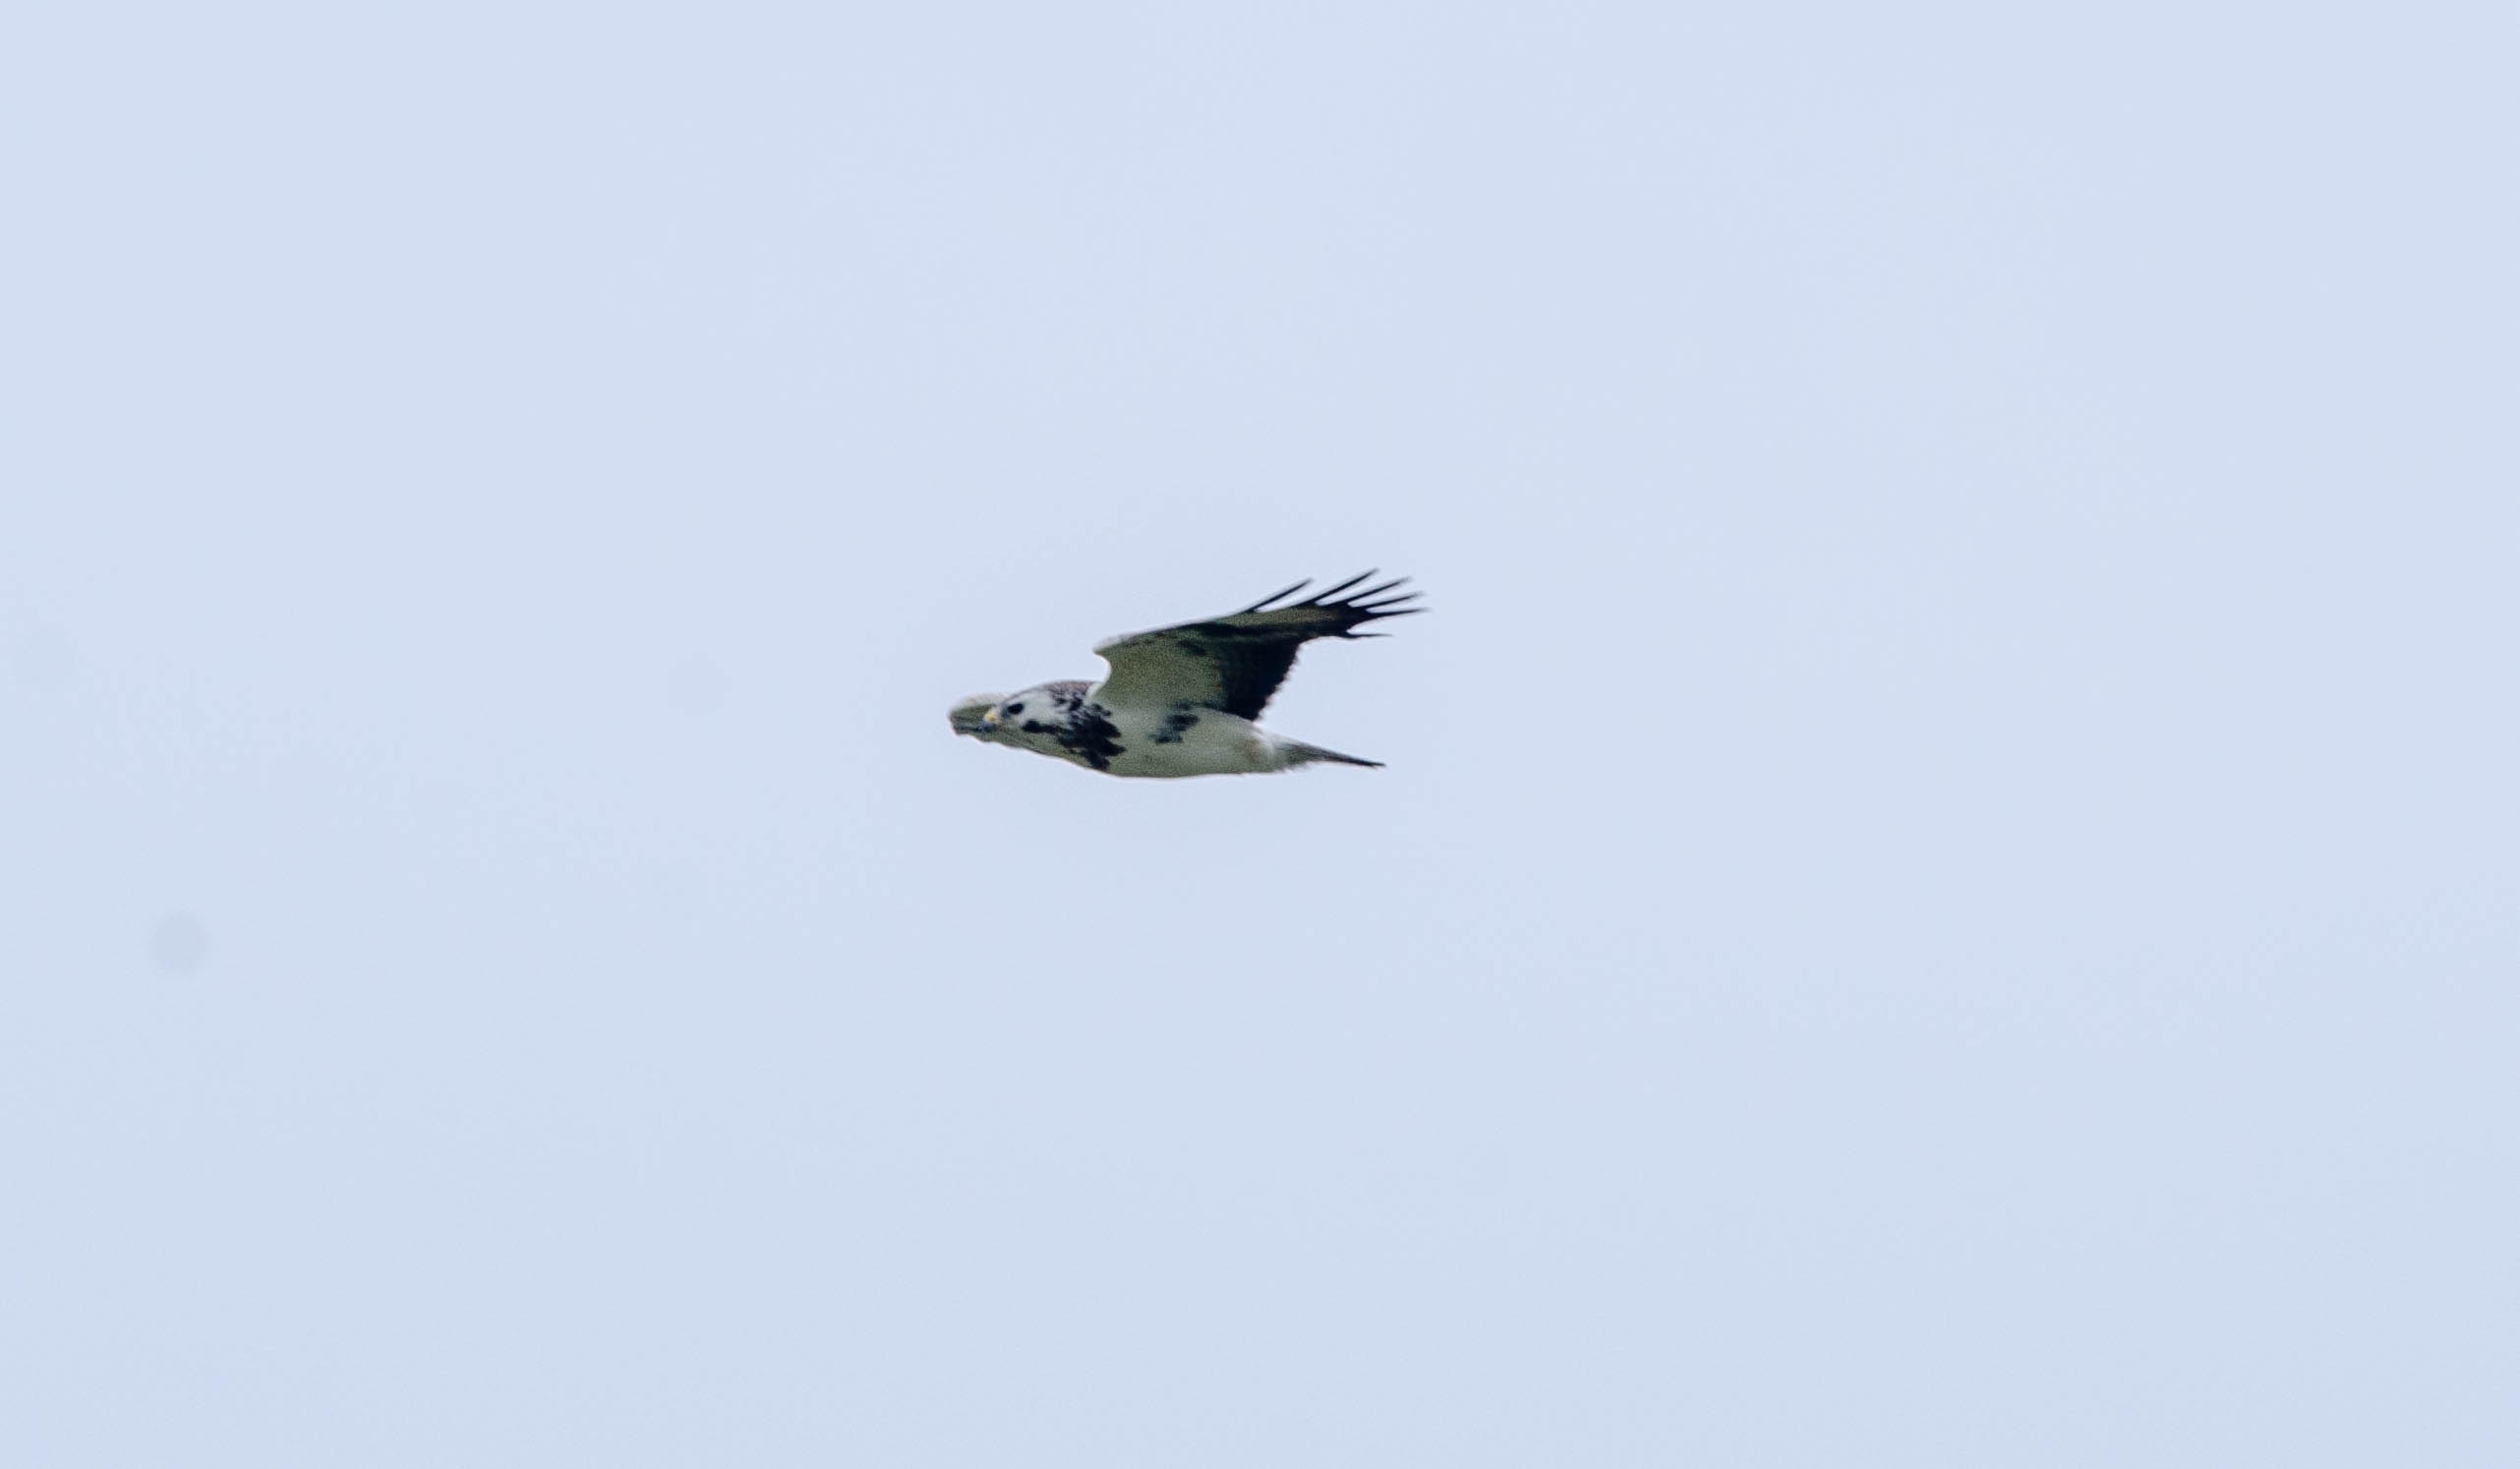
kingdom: Animalia
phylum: Chordata
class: Aves
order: Accipitriformes
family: Accipitridae
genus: Buteo
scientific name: Buteo buteo
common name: Musvåge
